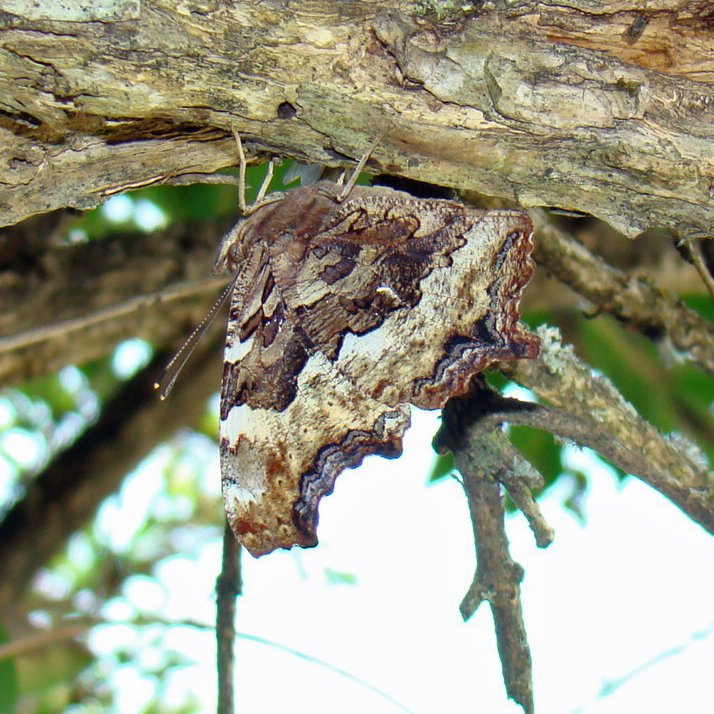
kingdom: Animalia
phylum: Arthropoda
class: Insecta
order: Lepidoptera
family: Nymphalidae
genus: Polygonia
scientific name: Polygonia vaualbum
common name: Compton Tortoiseshell
